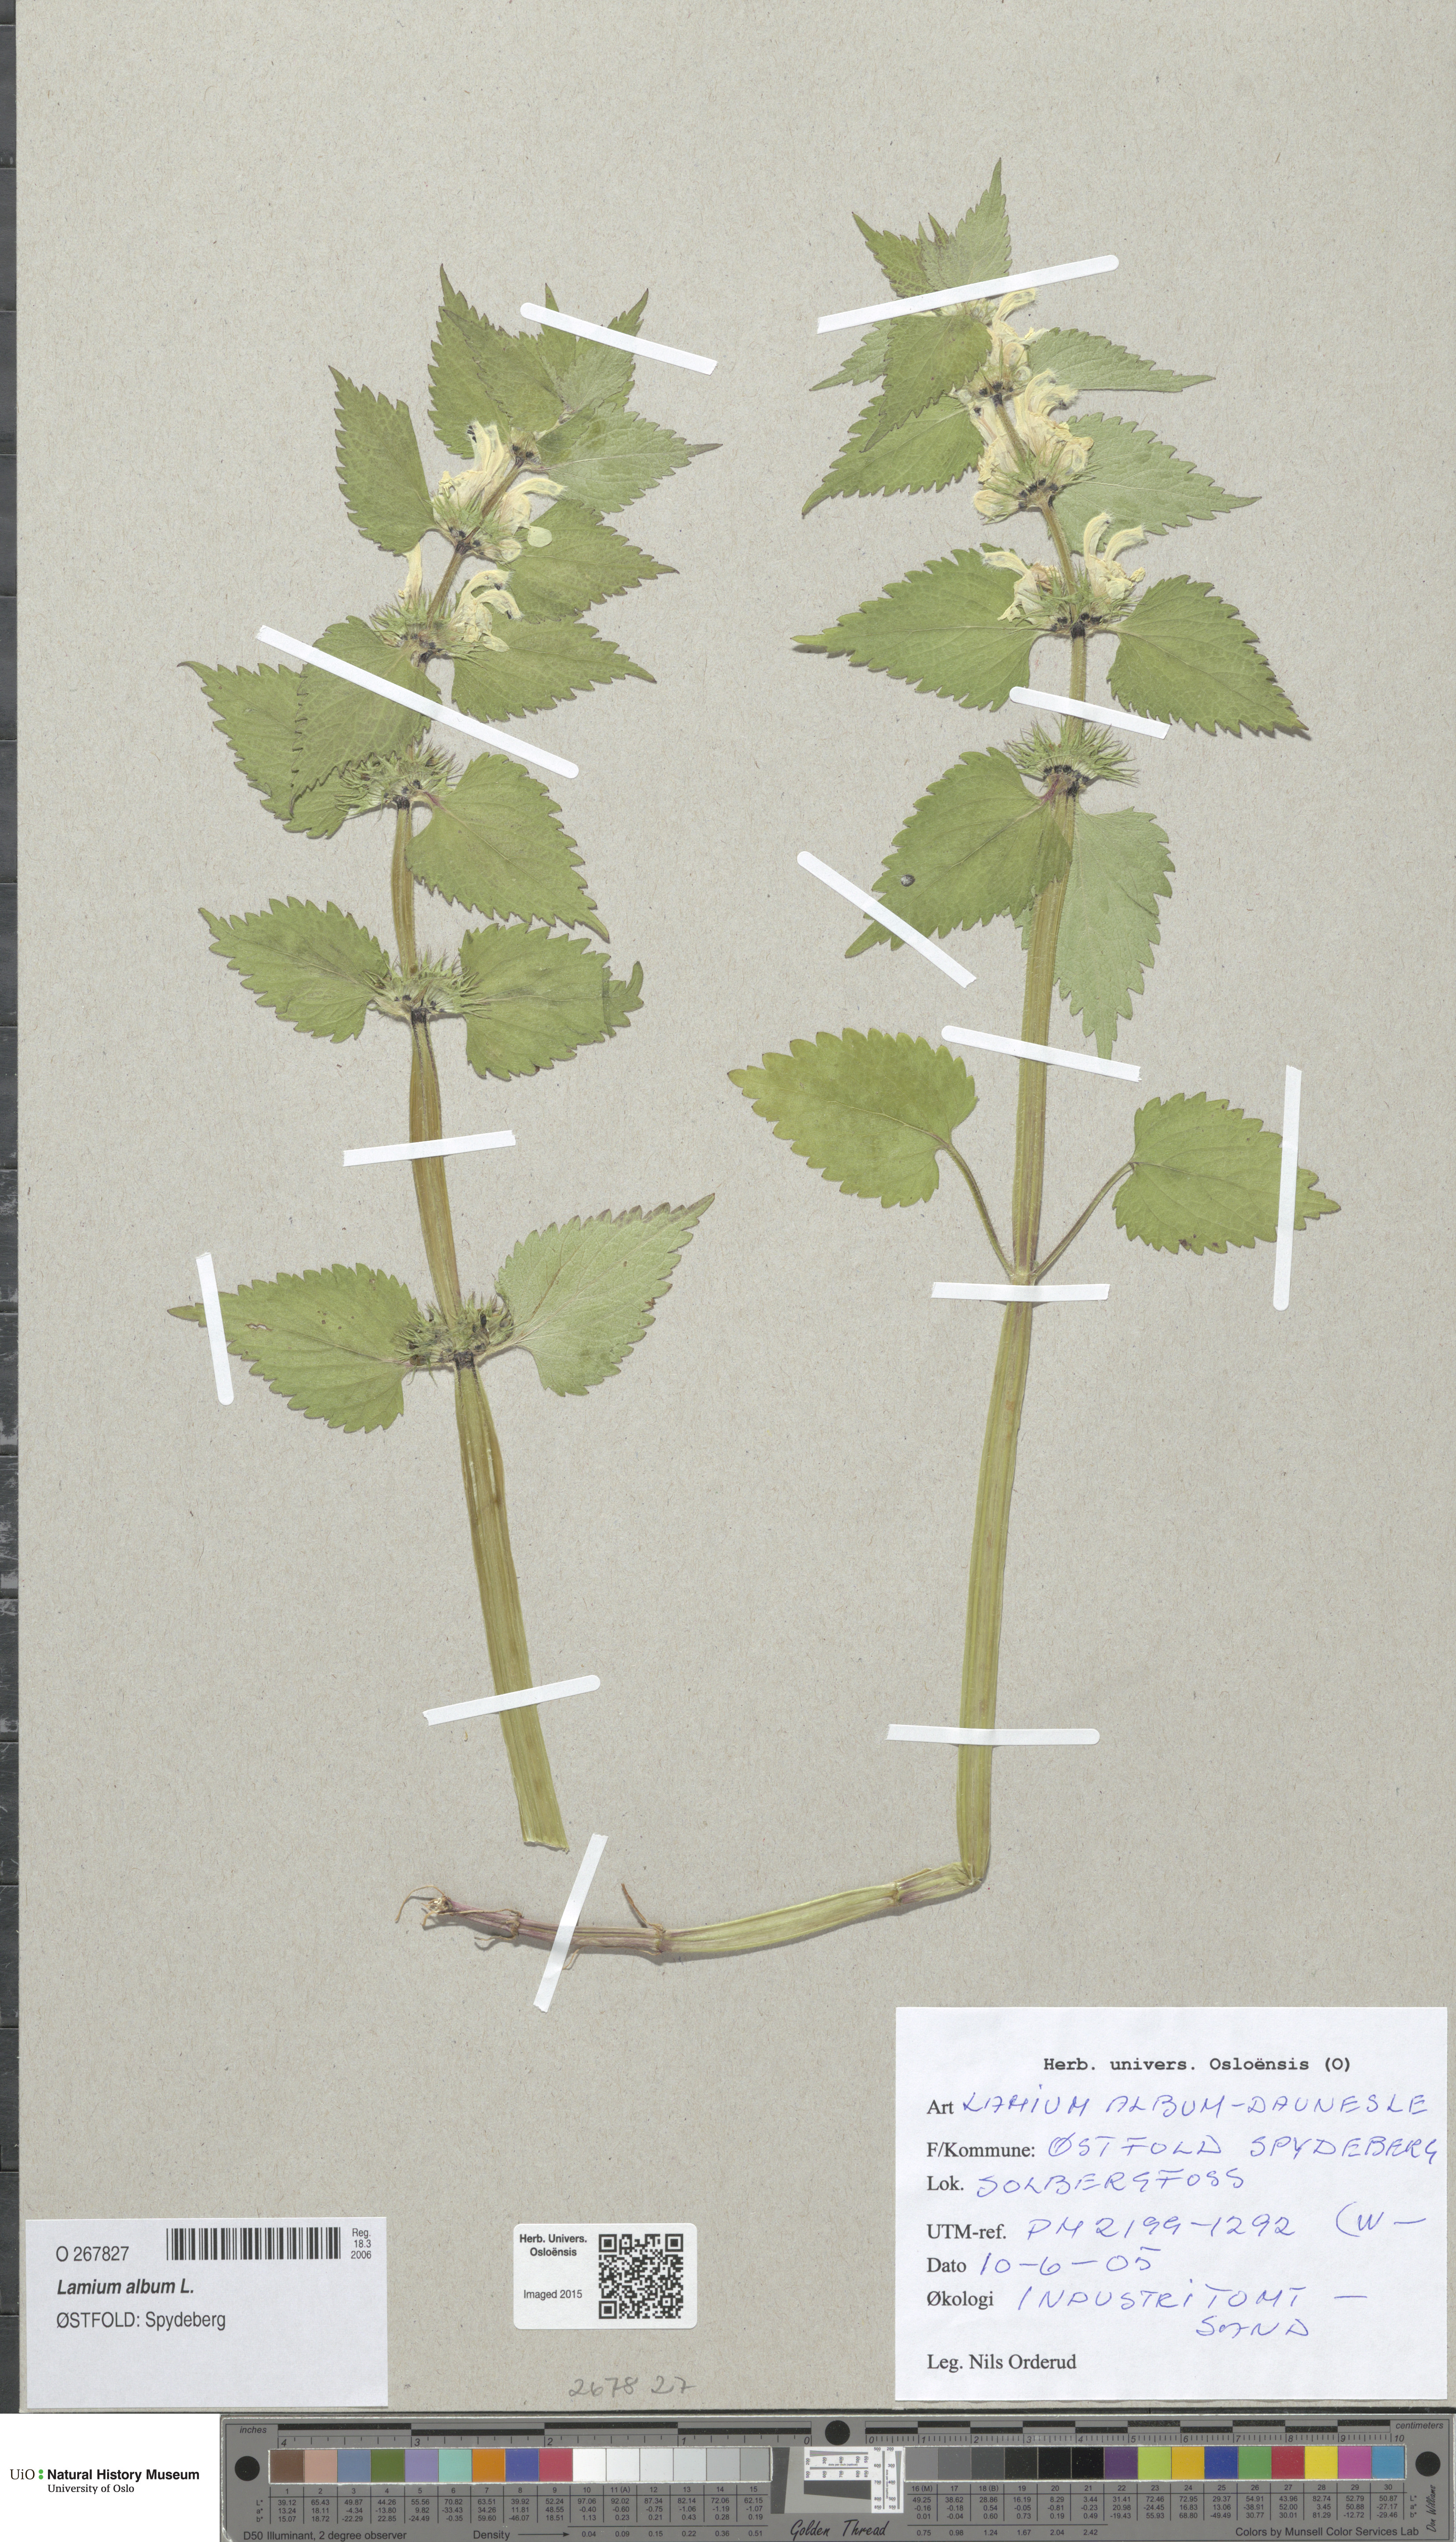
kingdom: Plantae
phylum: Tracheophyta
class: Magnoliopsida
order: Lamiales
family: Lamiaceae
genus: Lamium
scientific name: Lamium album
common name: White dead-nettle
